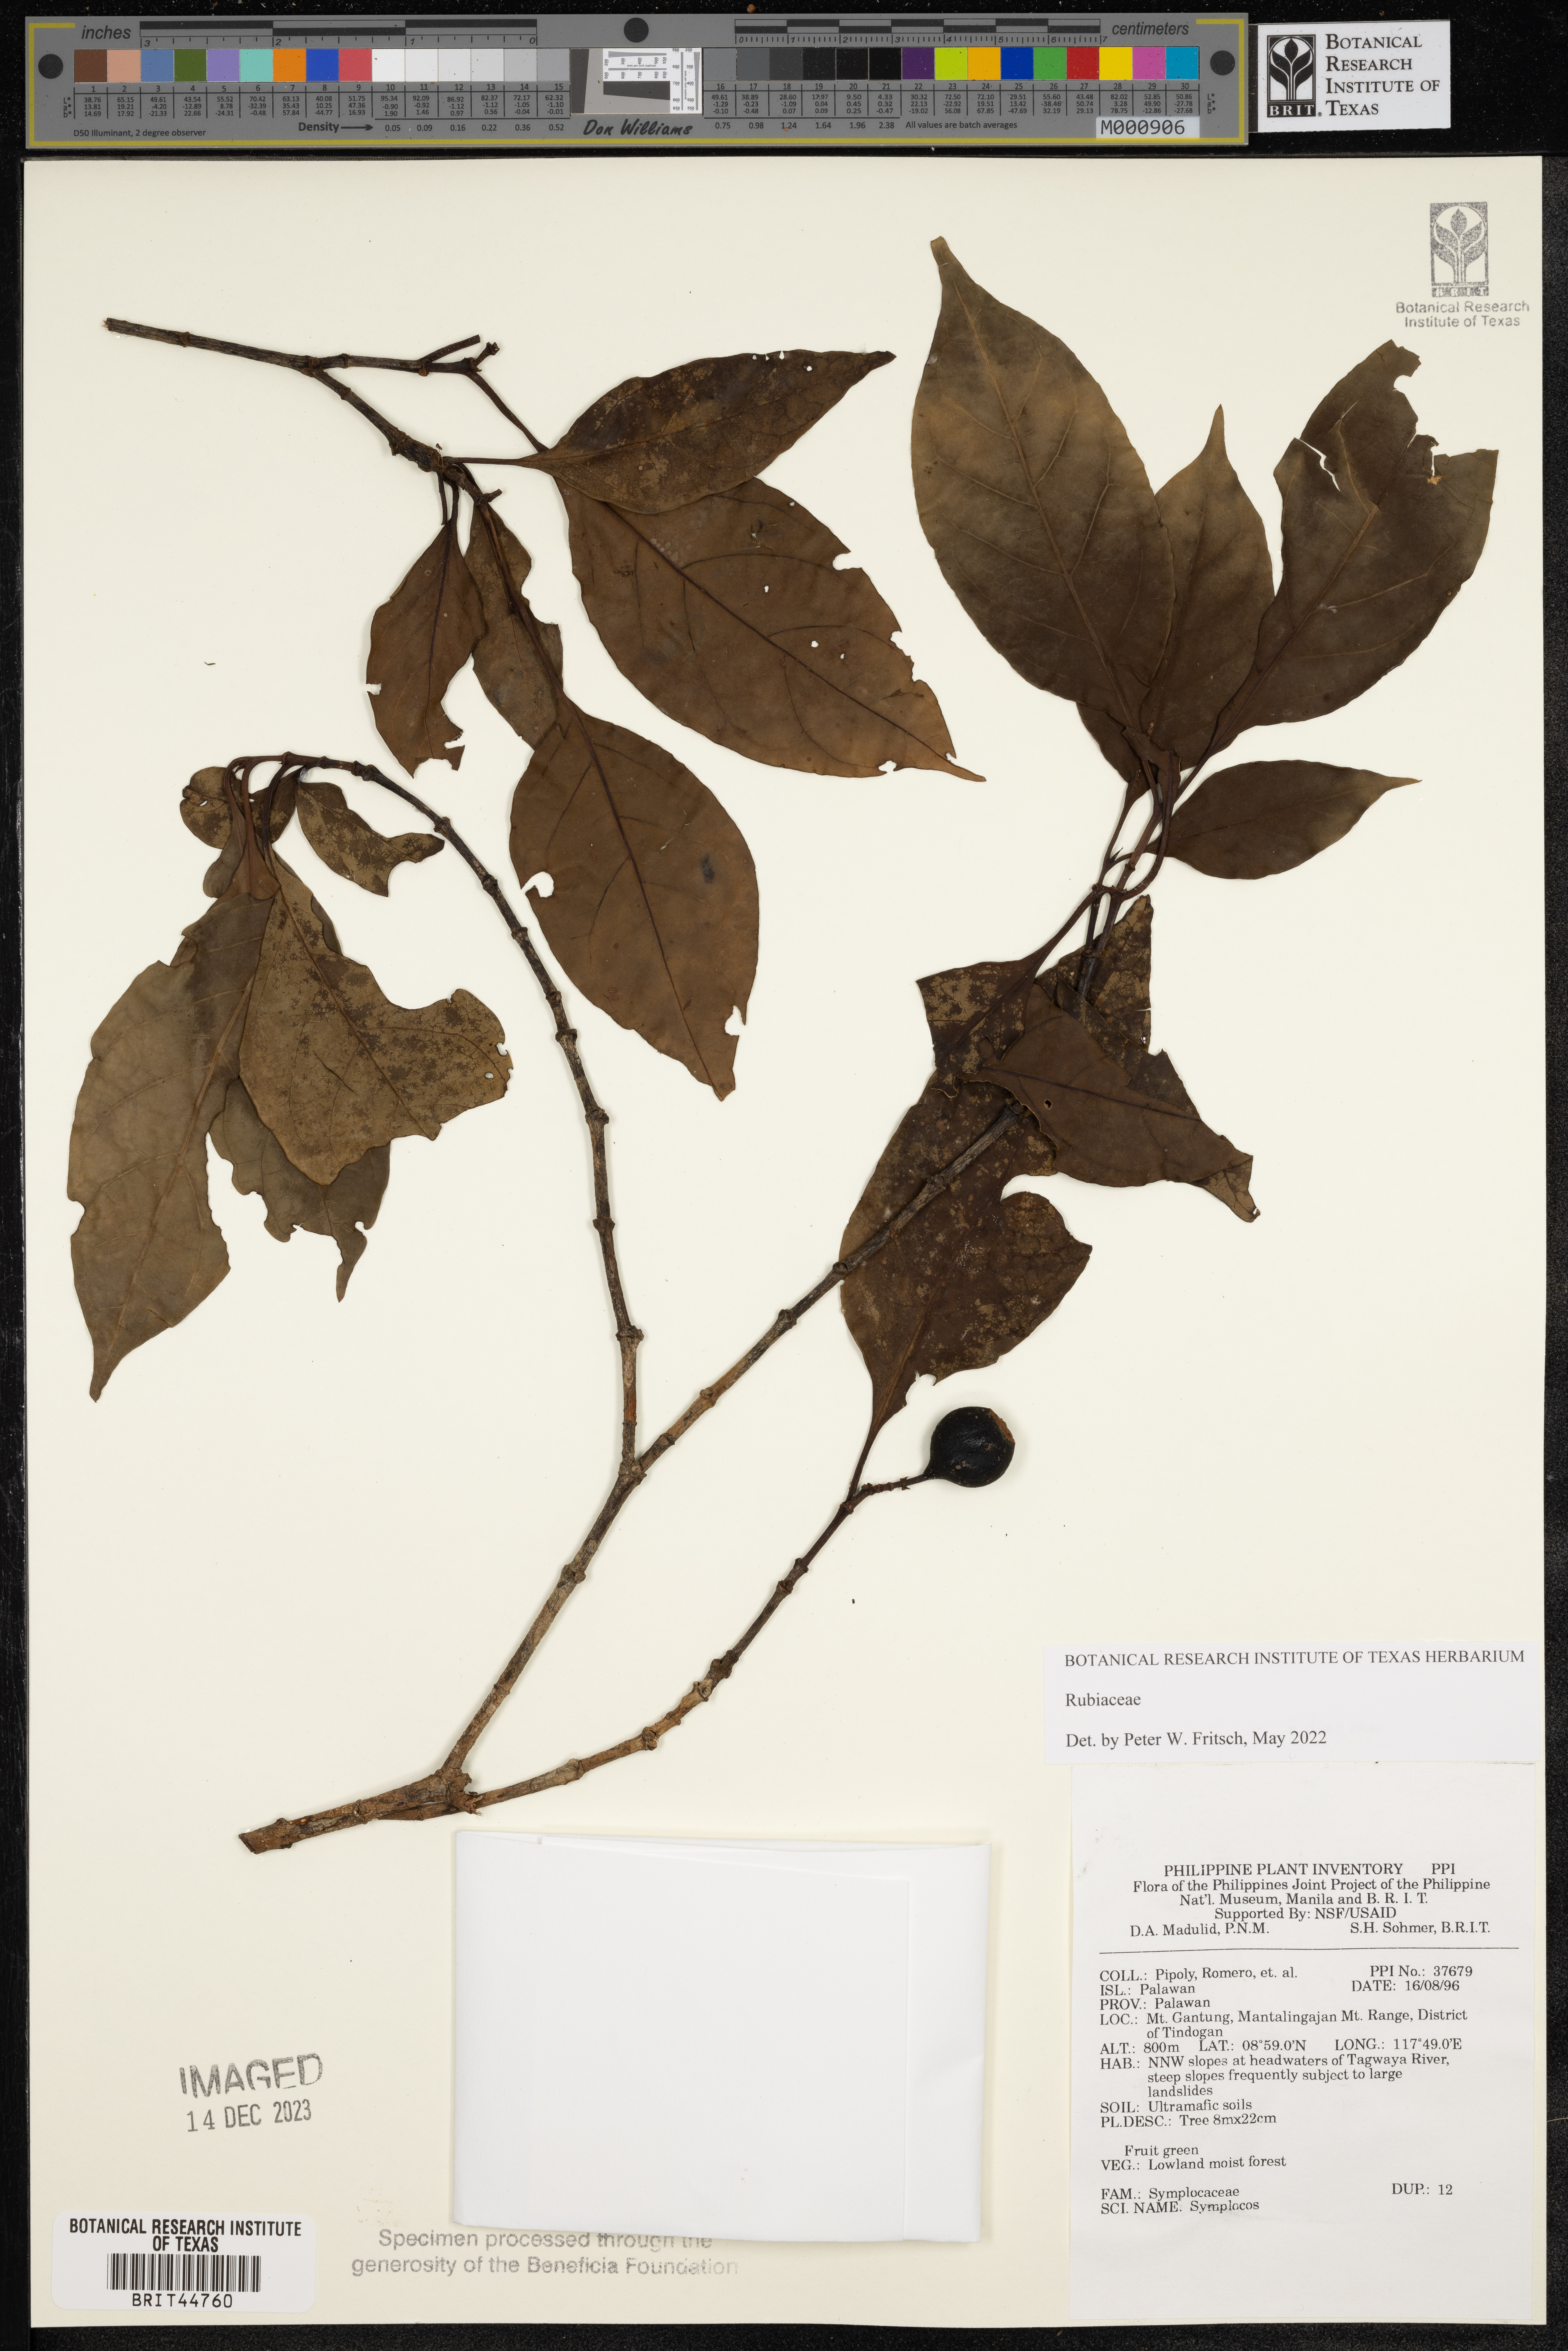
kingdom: Plantae
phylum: Tracheophyta
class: Magnoliopsida
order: Ericales
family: Symplocaceae
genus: Symplocos
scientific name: Symplocos
